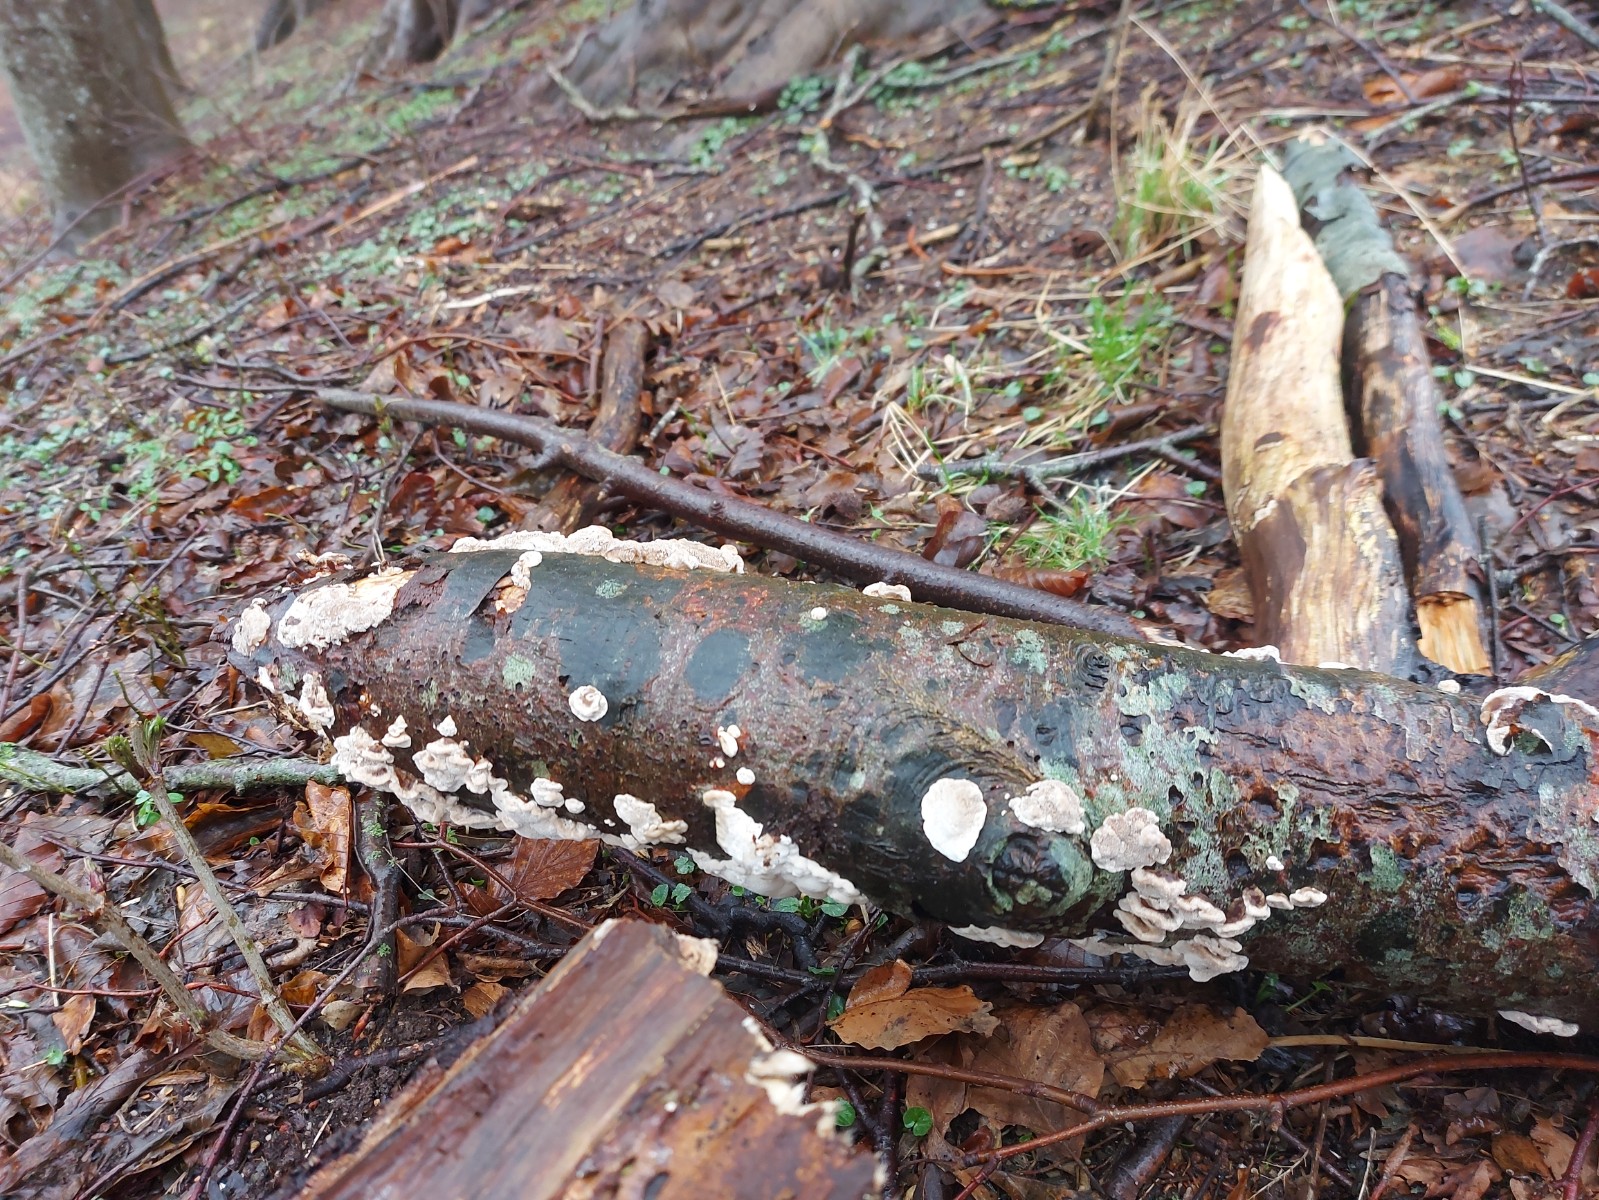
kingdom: Fungi
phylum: Basidiomycota
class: Agaricomycetes
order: Polyporales
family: Phanerochaetaceae
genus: Bjerkandera
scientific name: Bjerkandera fumosa
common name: grågul sodporesvamp
